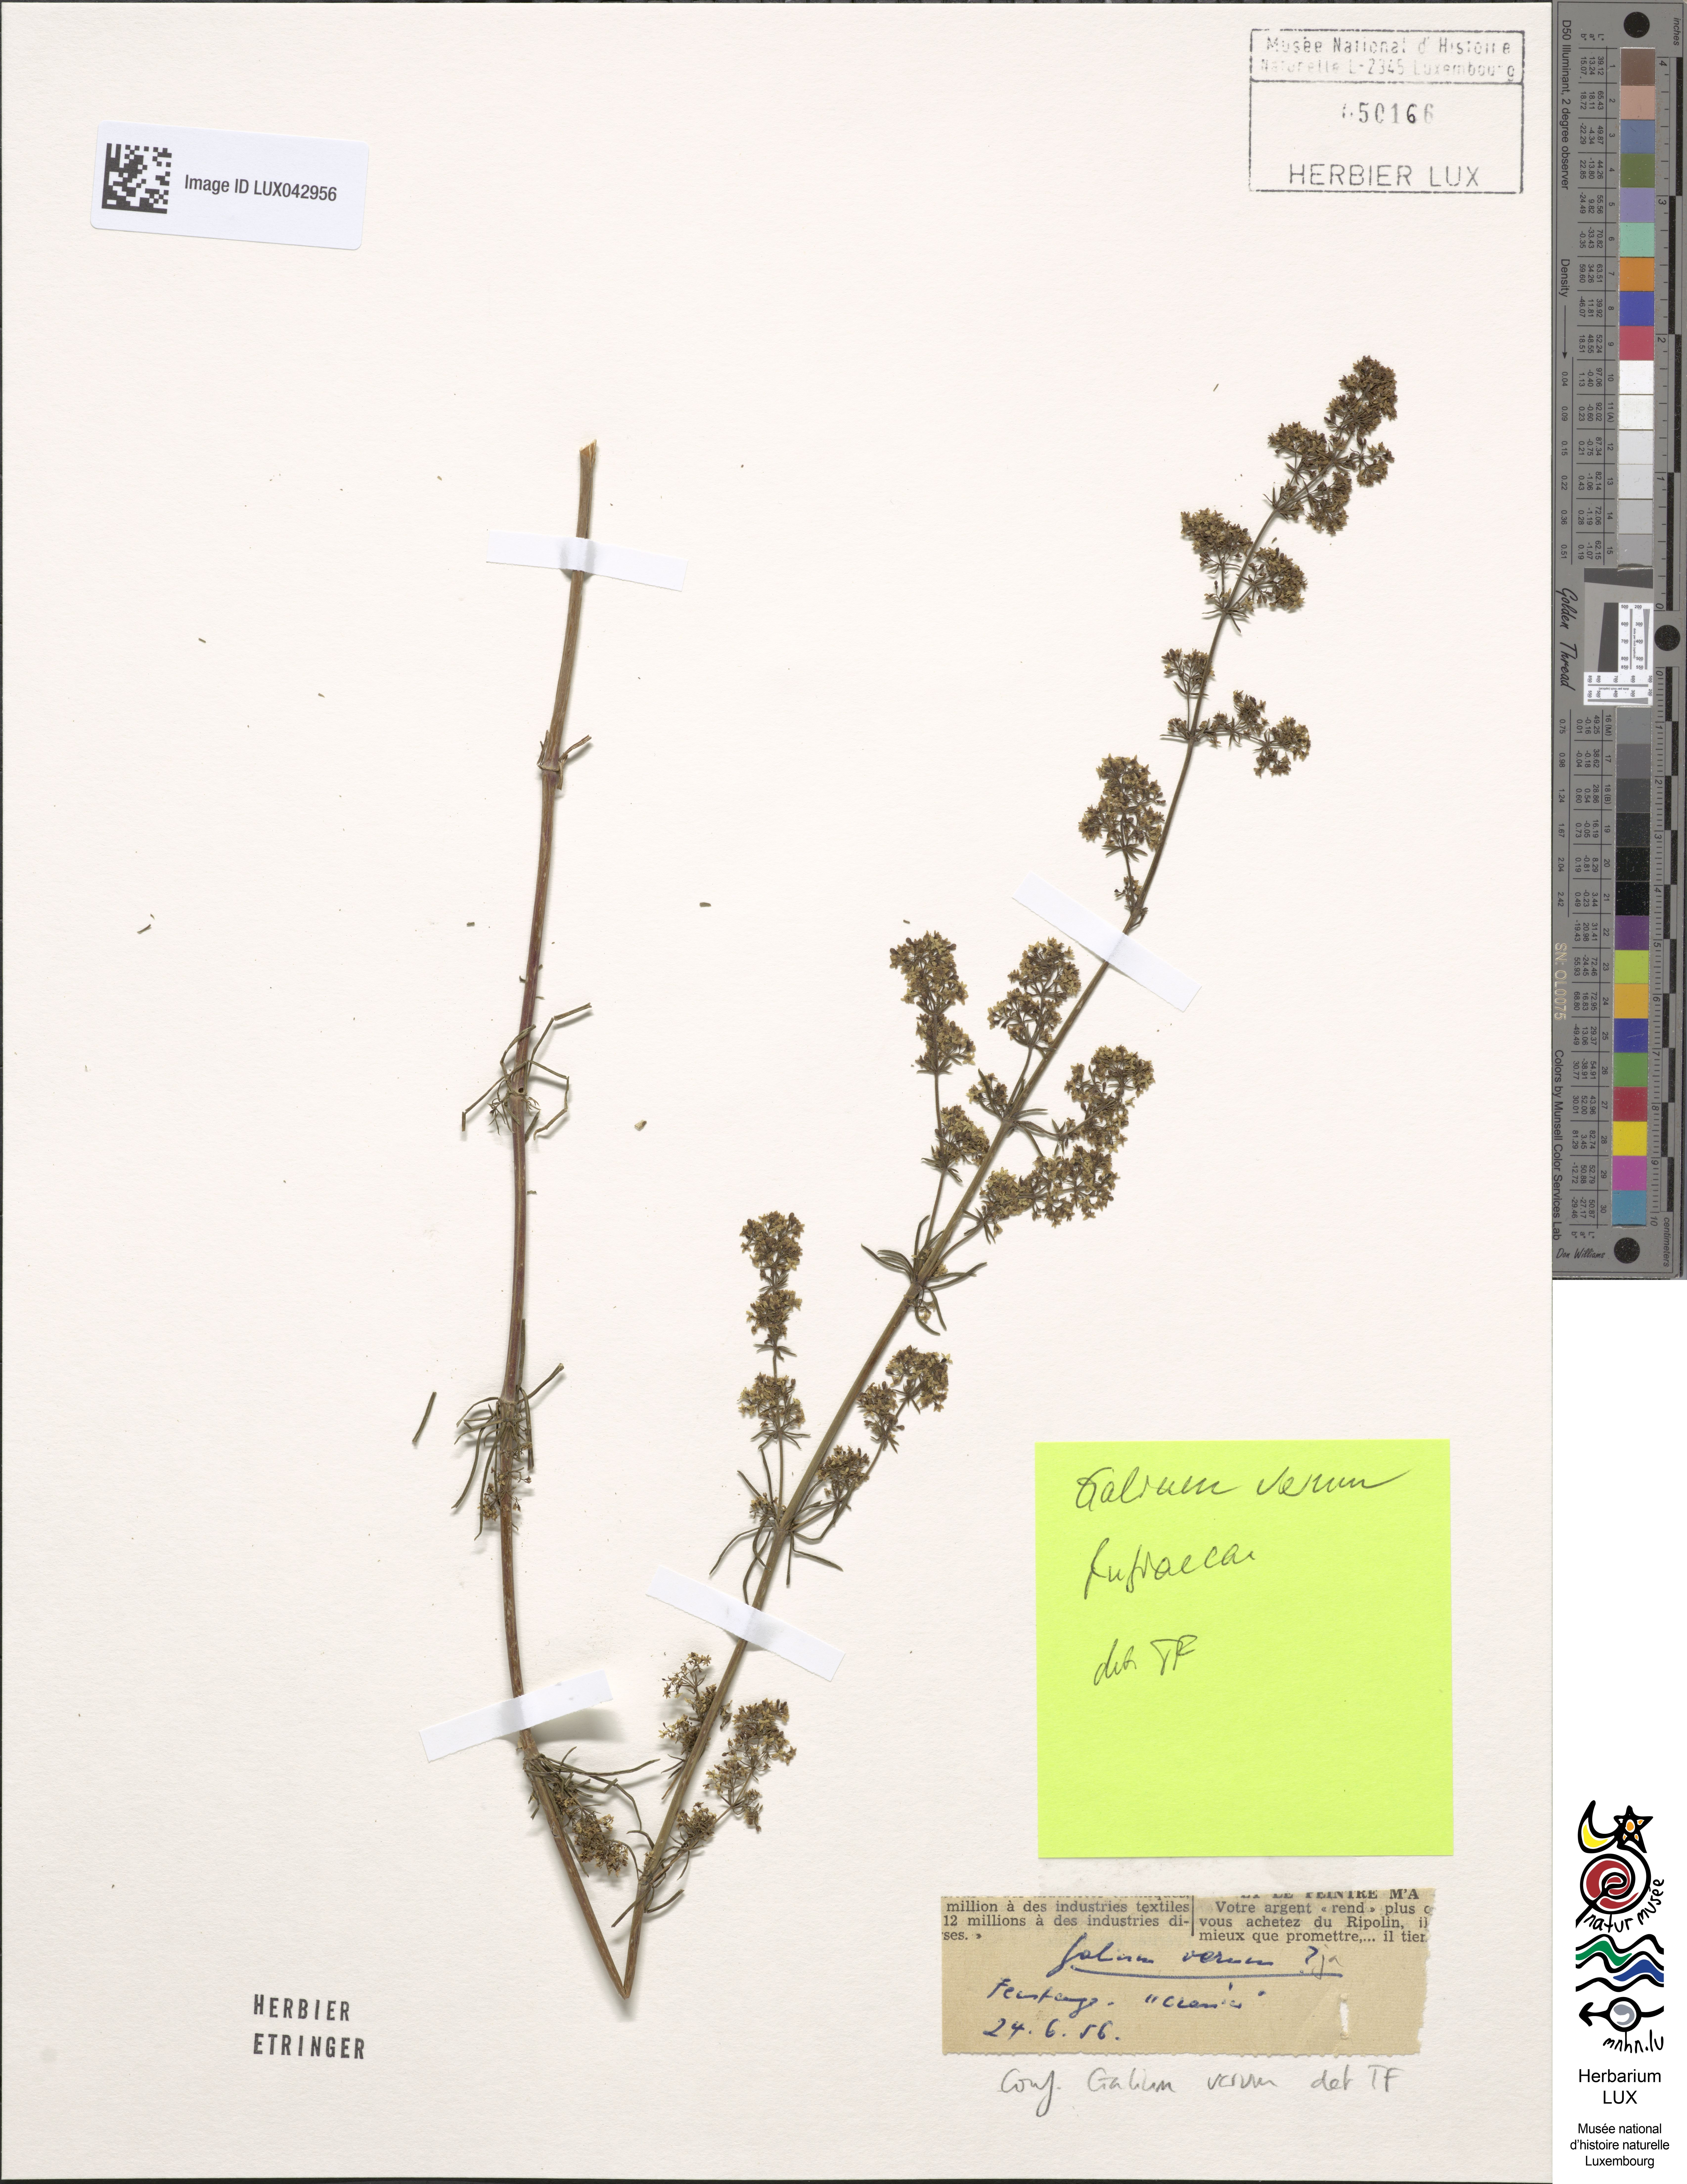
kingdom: Plantae
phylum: Tracheophyta
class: Magnoliopsida
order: Gentianales
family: Rubiaceae
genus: Galium
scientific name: Galium verum
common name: Lady's bedstraw
